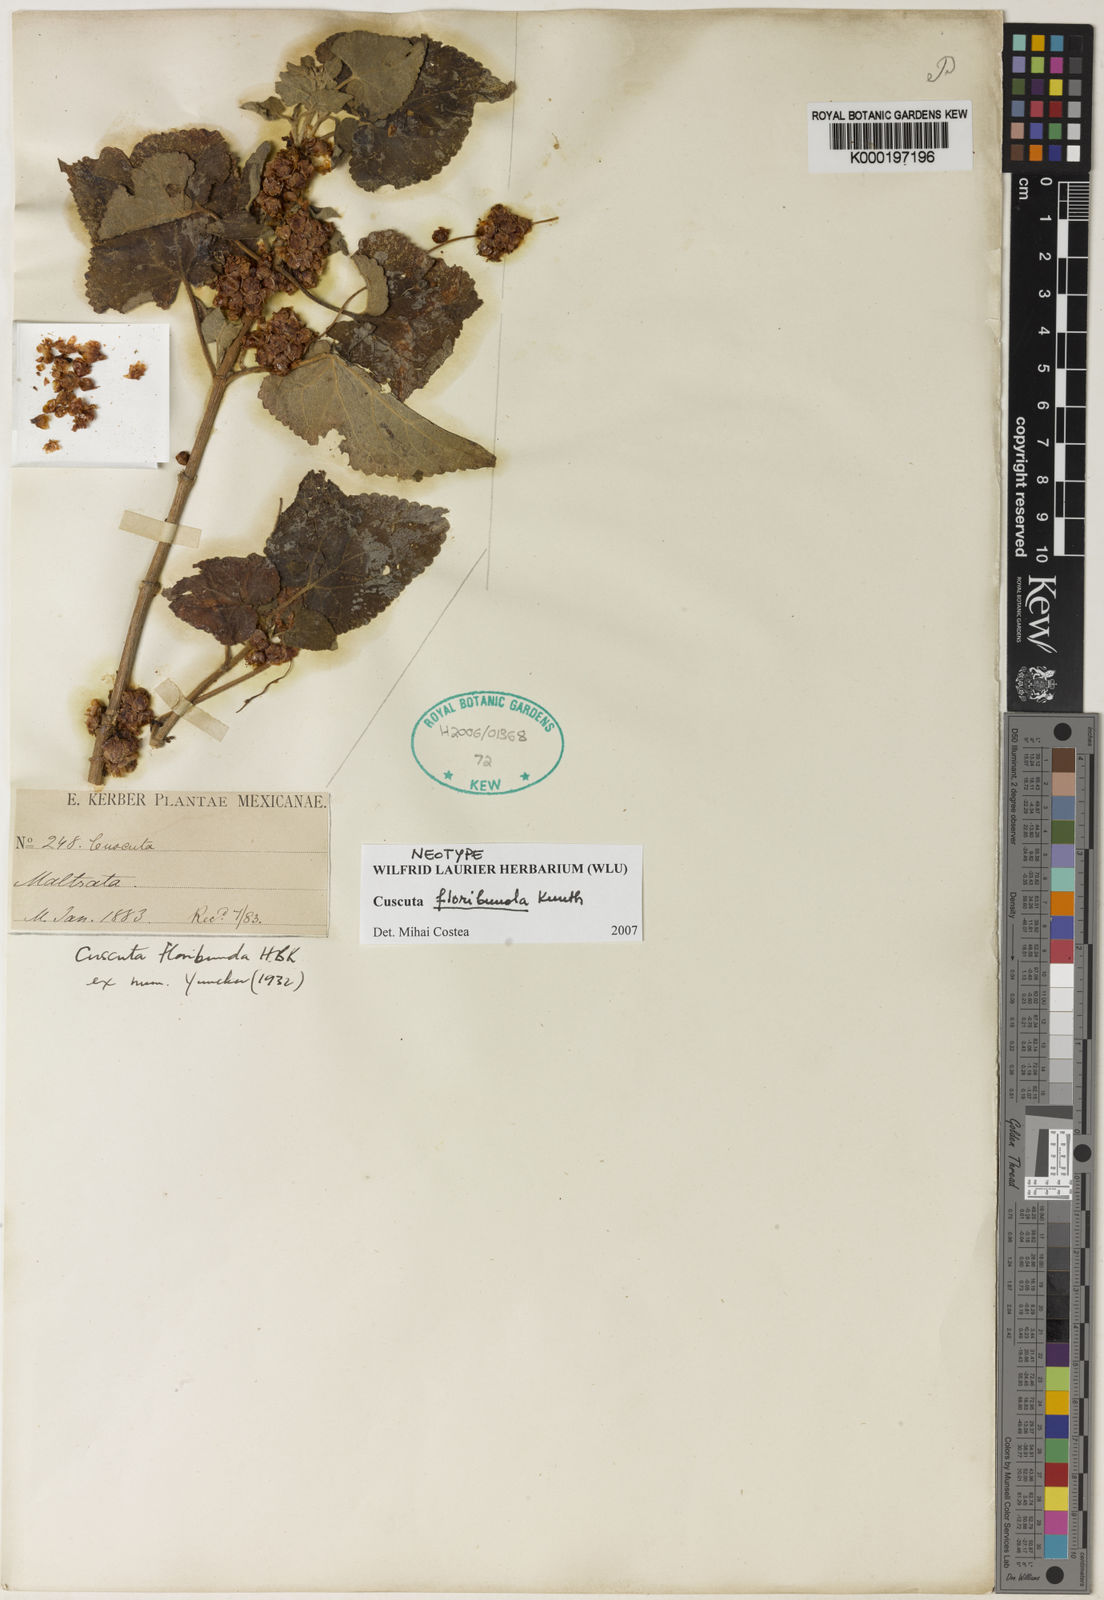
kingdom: Plantae
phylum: Tracheophyta
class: Magnoliopsida
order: Solanales
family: Convolvulaceae
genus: Cuscuta
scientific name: Cuscuta tinctoria
